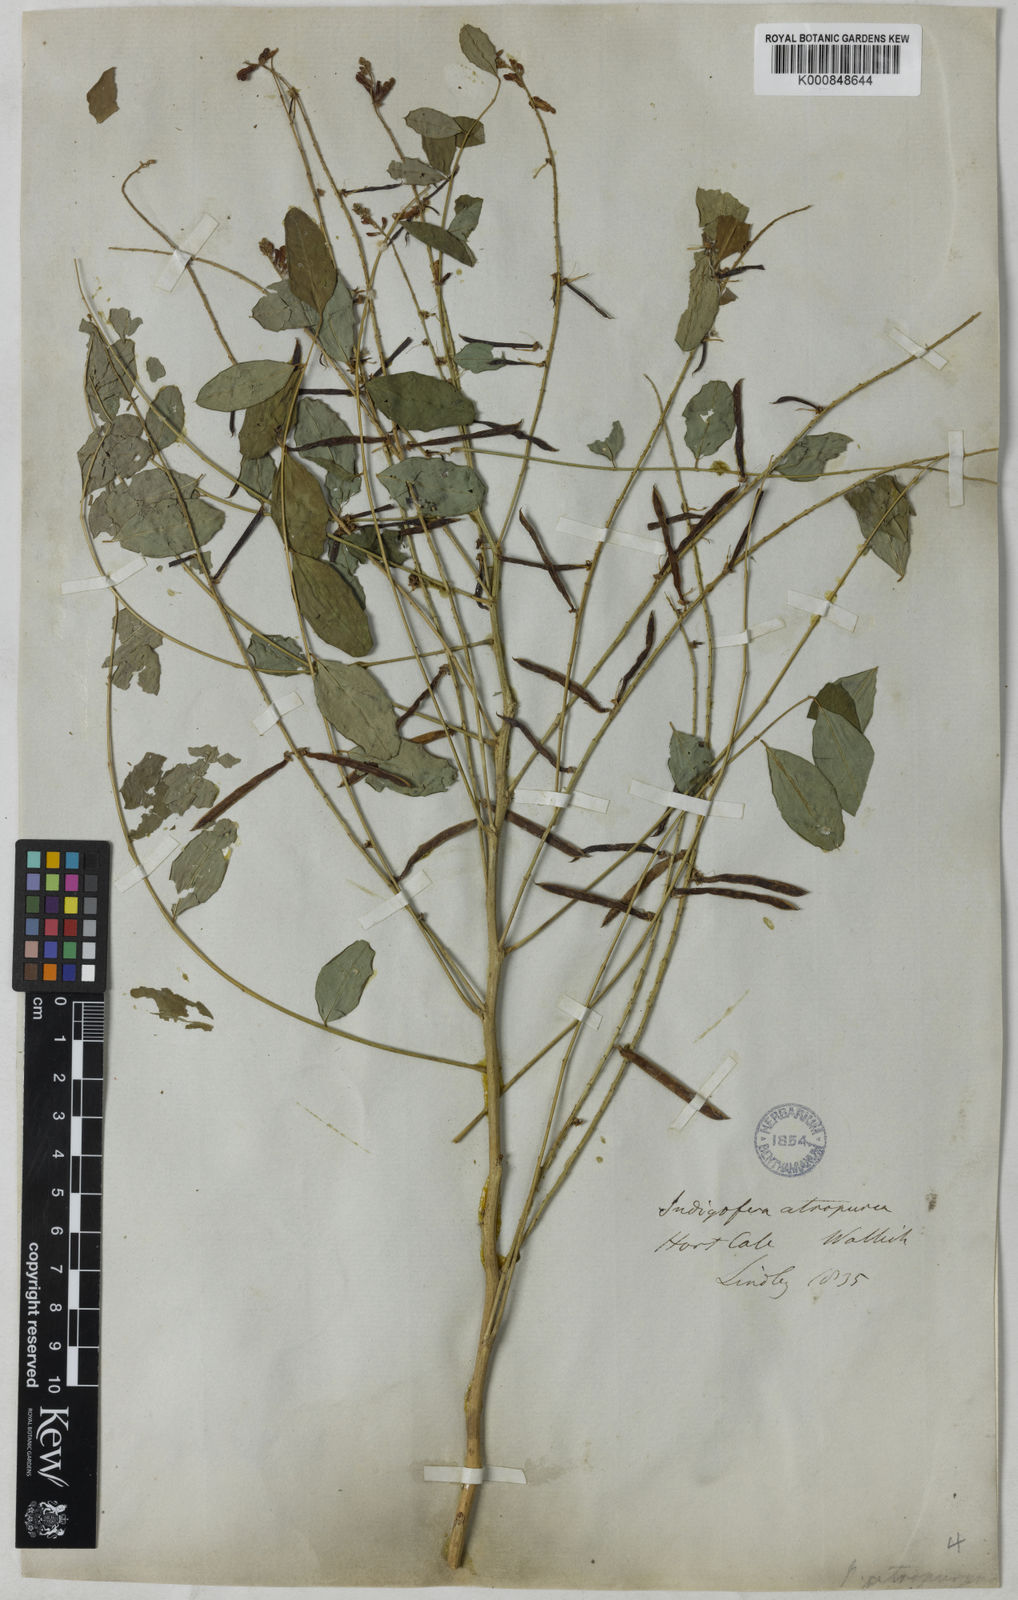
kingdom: Plantae
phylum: Tracheophyta
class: Magnoliopsida
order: Fabales
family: Fabaceae
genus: Indigofera
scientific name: Indigofera atropurpurea
